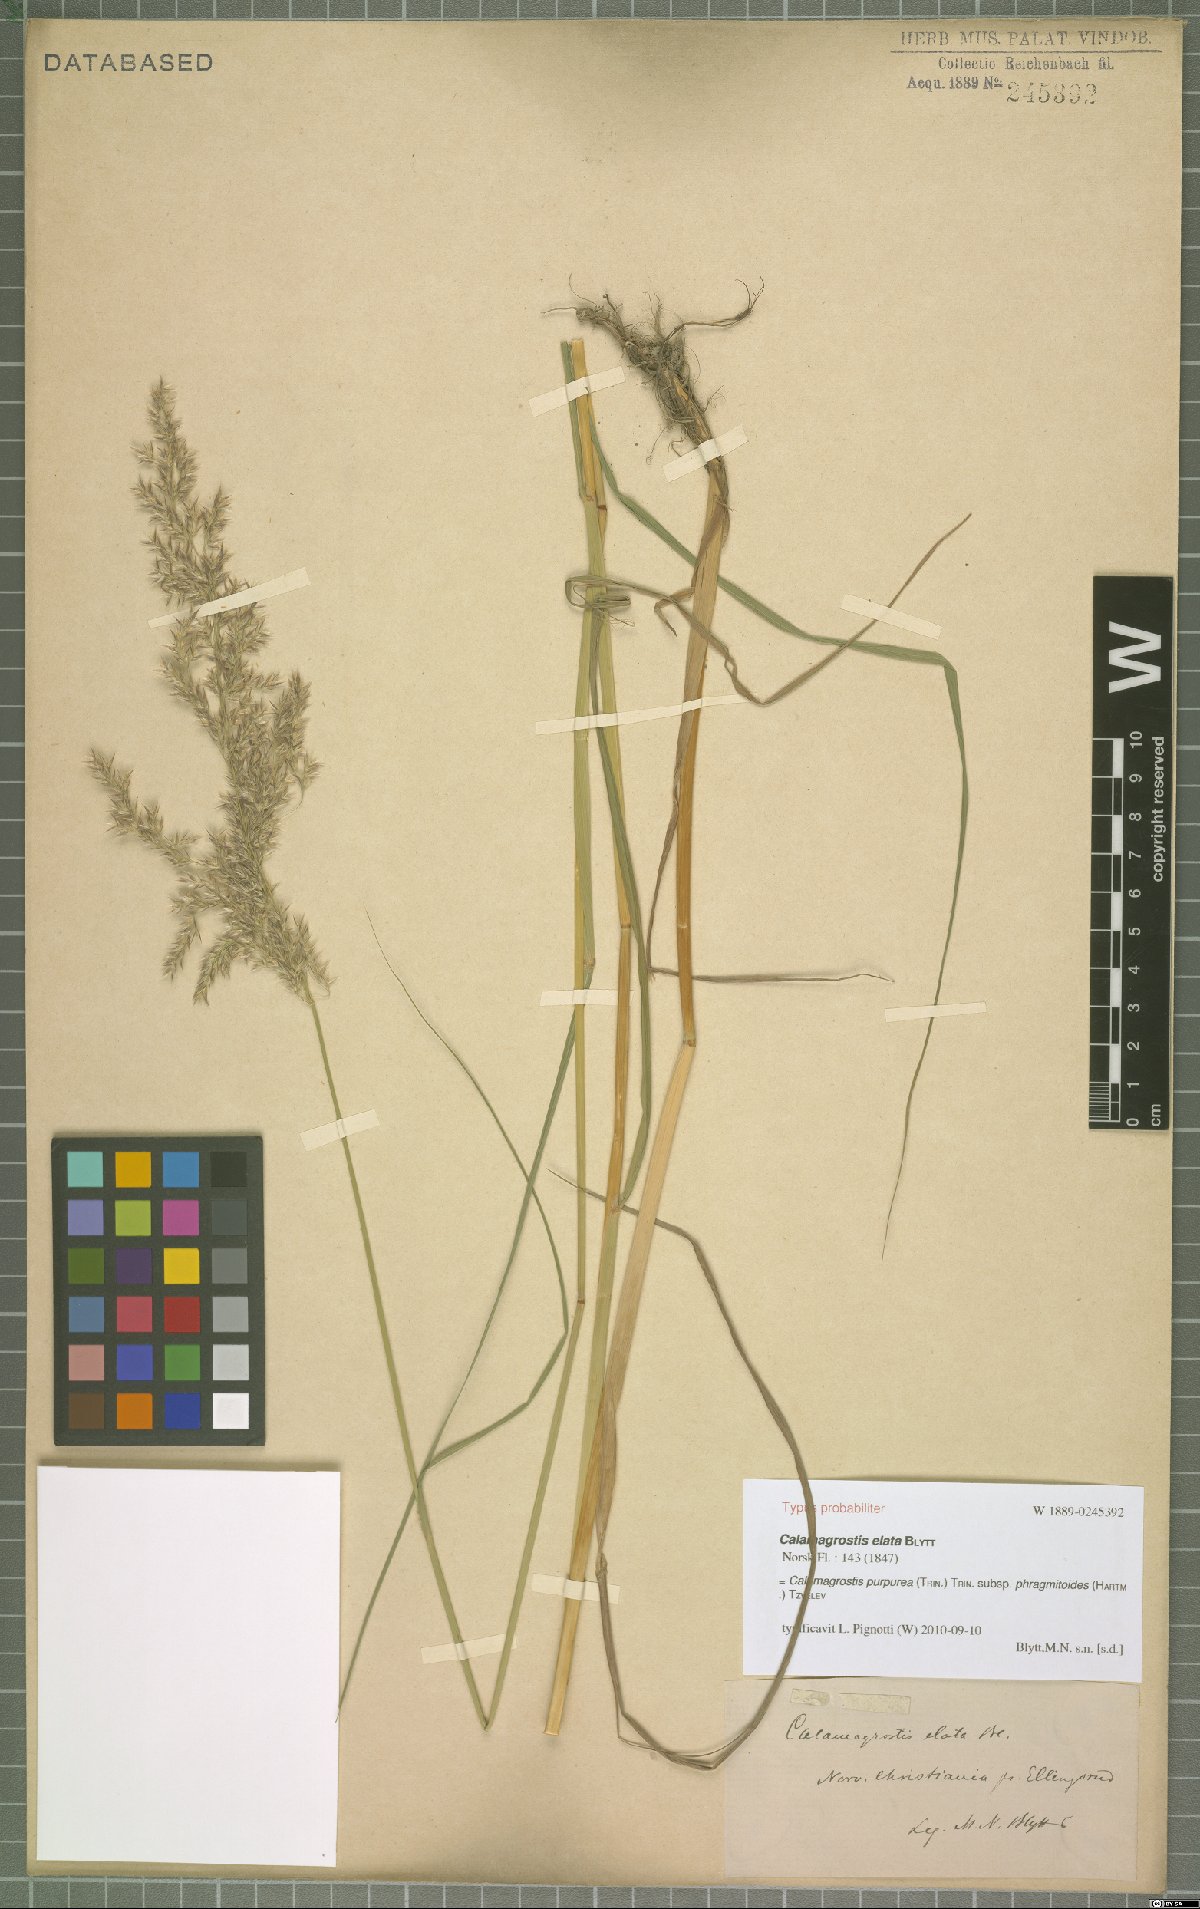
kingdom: Plantae
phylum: Tracheophyta
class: Liliopsida
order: Poales
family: Poaceae
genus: Calamagrostis
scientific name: Calamagrostis purpurea
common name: Scandinavian small-reed
